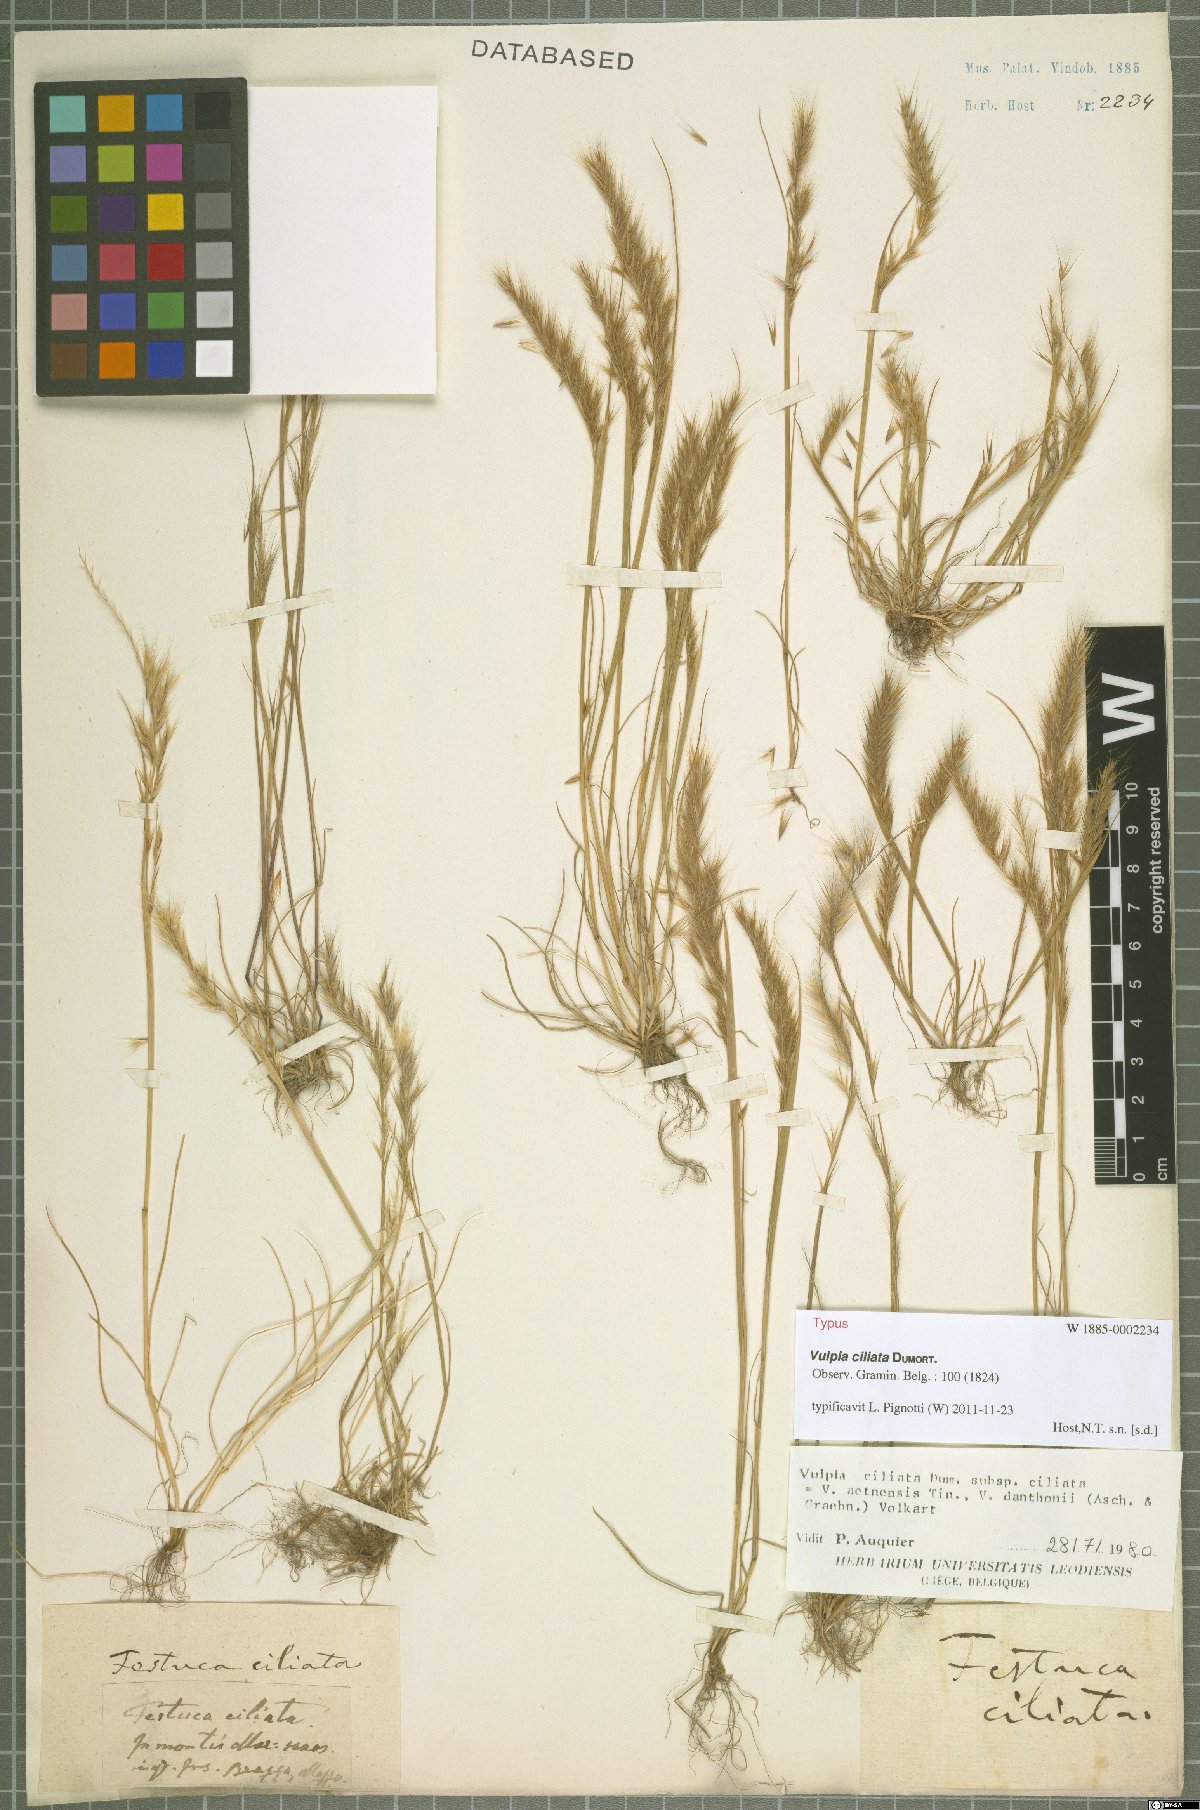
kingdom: Plantae
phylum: Tracheophyta
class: Liliopsida
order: Poales
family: Poaceae
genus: Festuca
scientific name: Festuca ambigua
